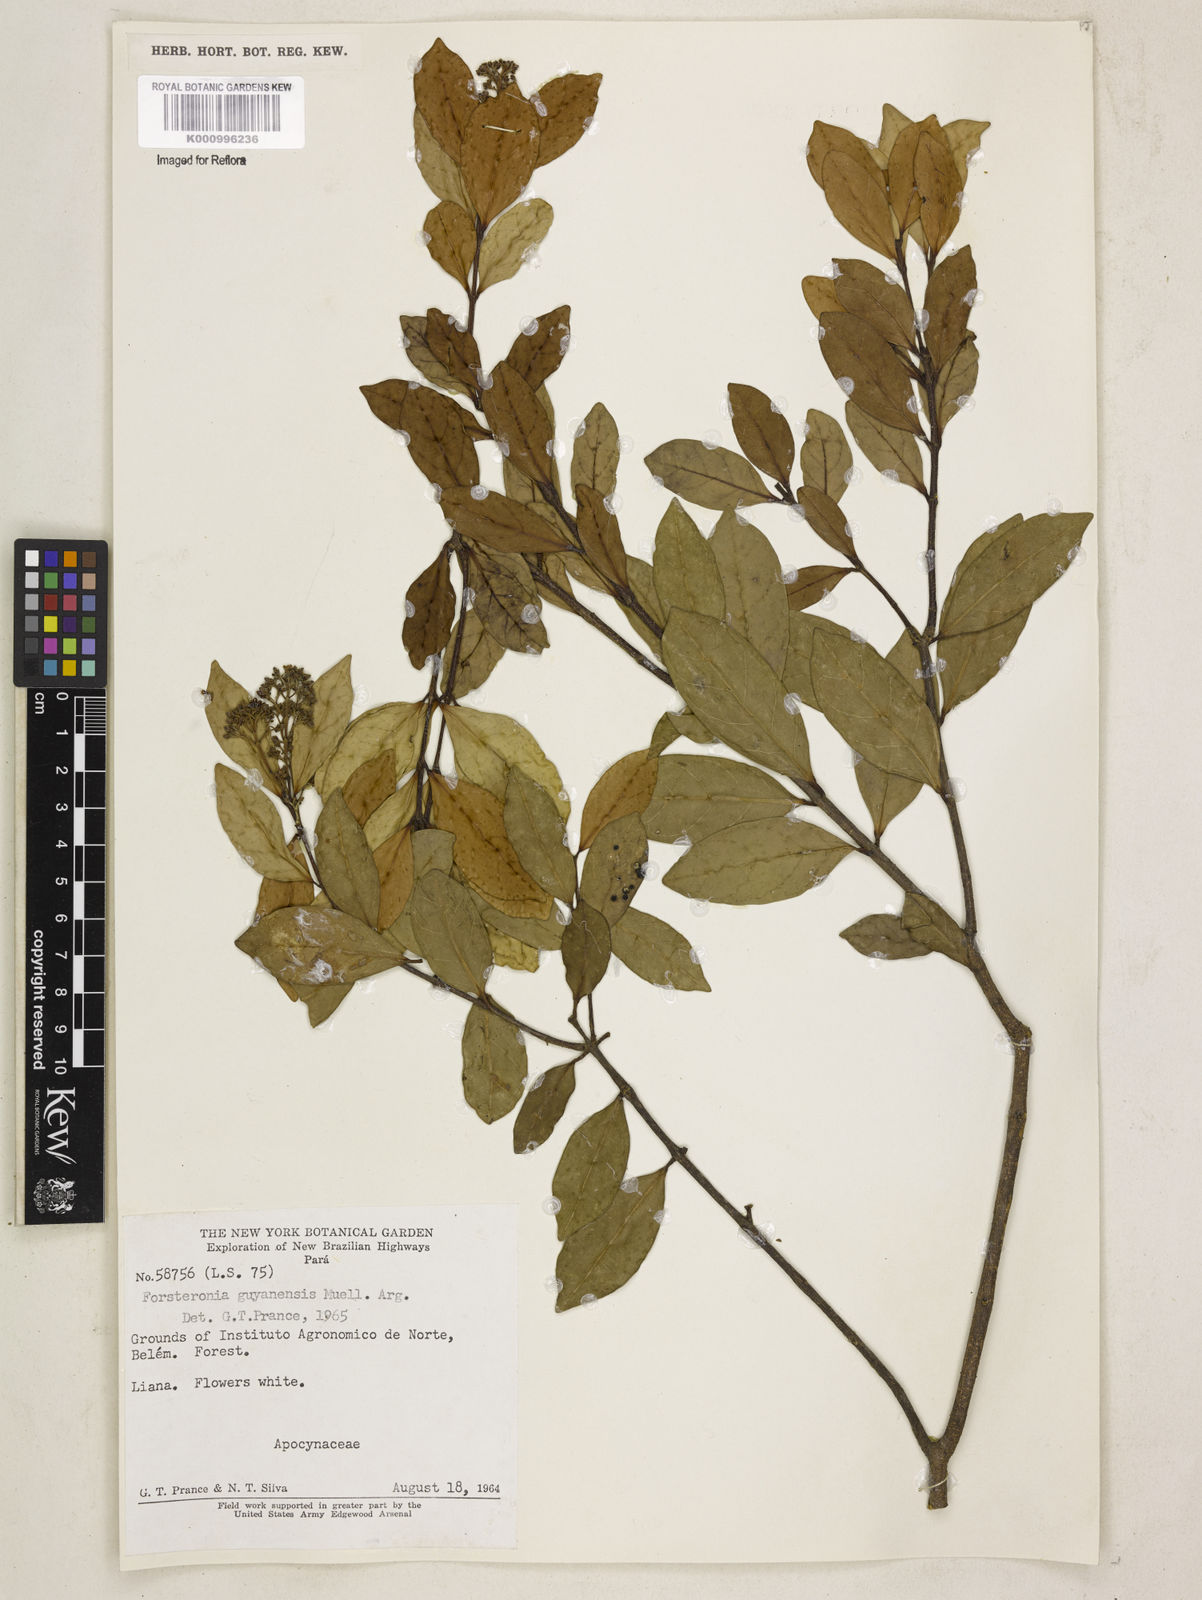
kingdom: Plantae
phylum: Tracheophyta
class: Magnoliopsida
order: Gentianales
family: Apocynaceae
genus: Forsteronia
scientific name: Forsteronia guyanensis
